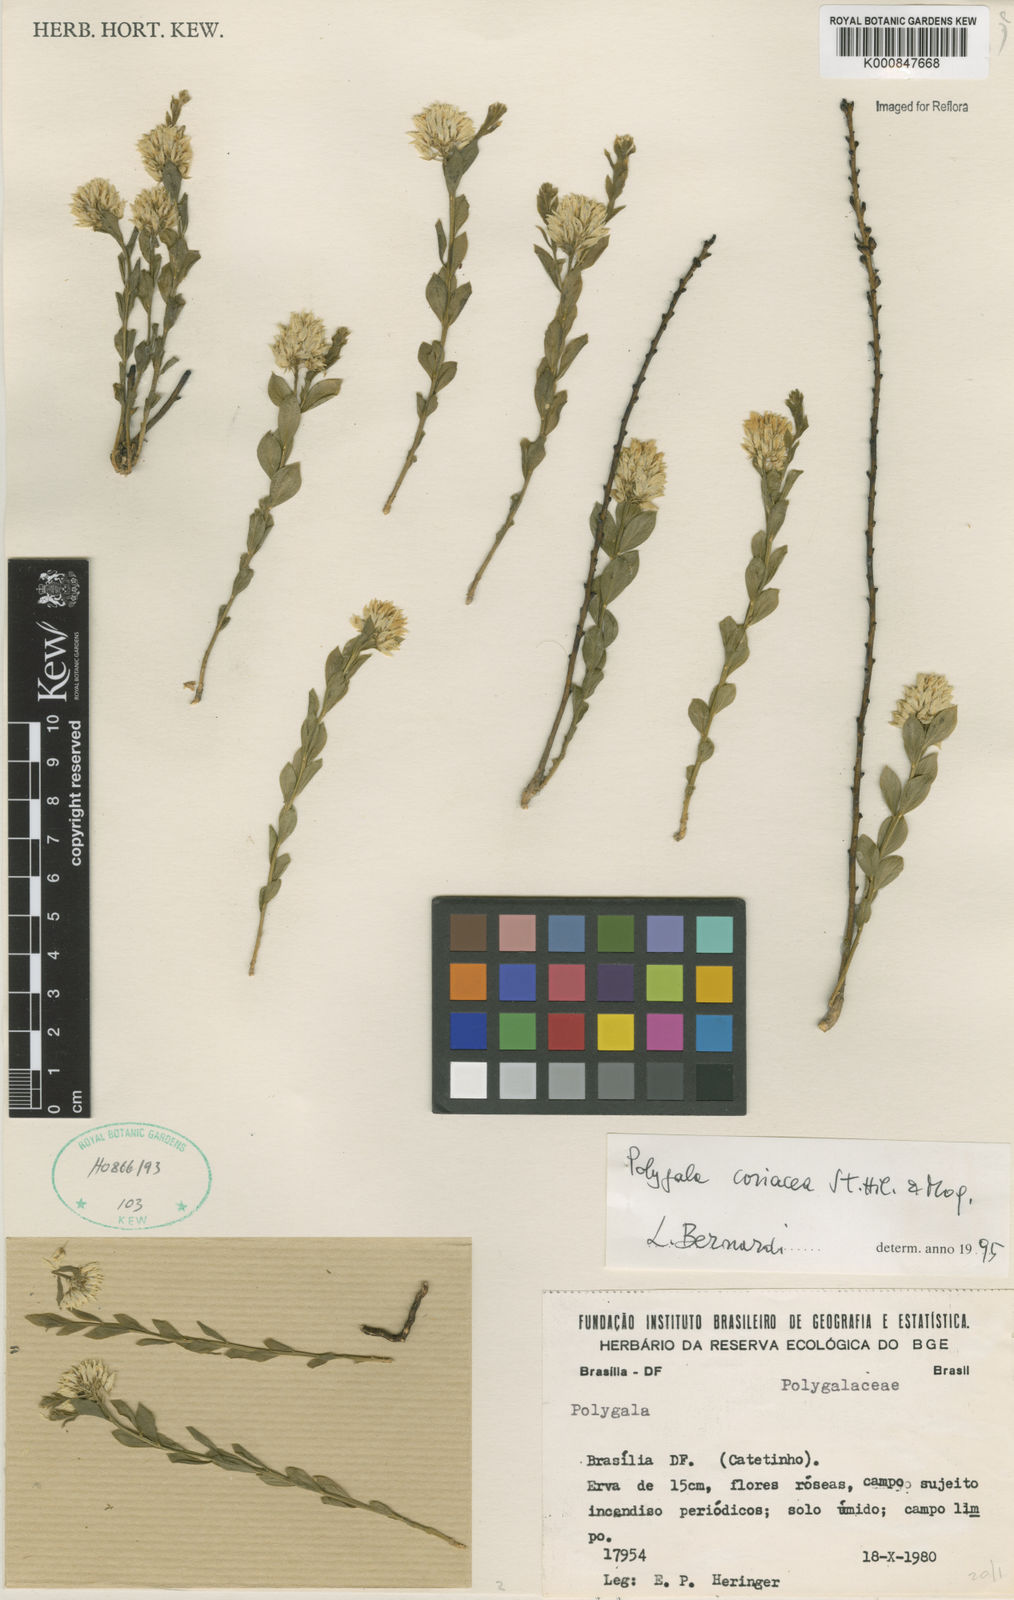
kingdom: Plantae
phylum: Tracheophyta
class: Magnoliopsida
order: Fabales
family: Polygalaceae
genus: Polygala
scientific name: Polygala coriacea
